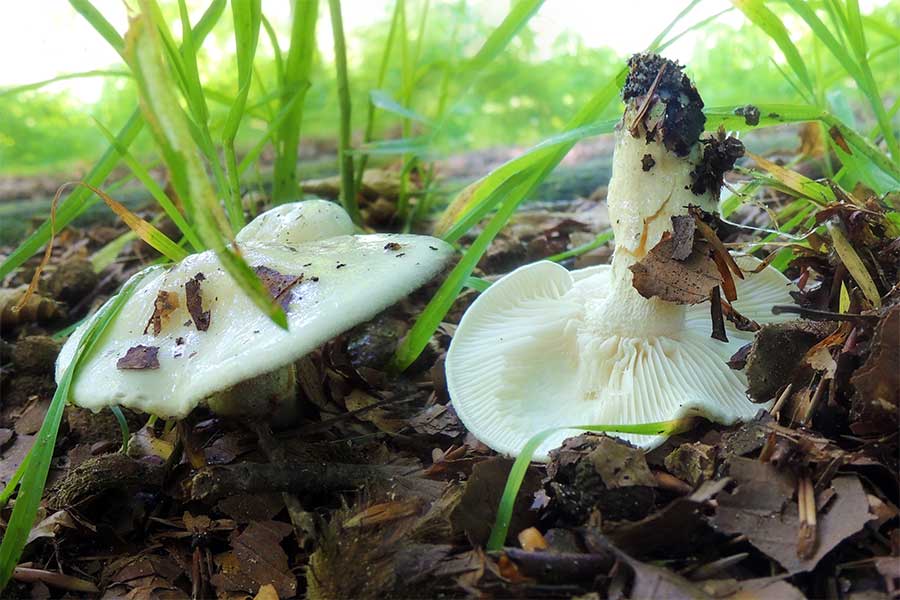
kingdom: Fungi
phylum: Basidiomycota
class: Agaricomycetes
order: Agaricales
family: Hygrophoraceae
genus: Hygrophorus
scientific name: Hygrophorus eburneus
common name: elfenbens-sneglehat
